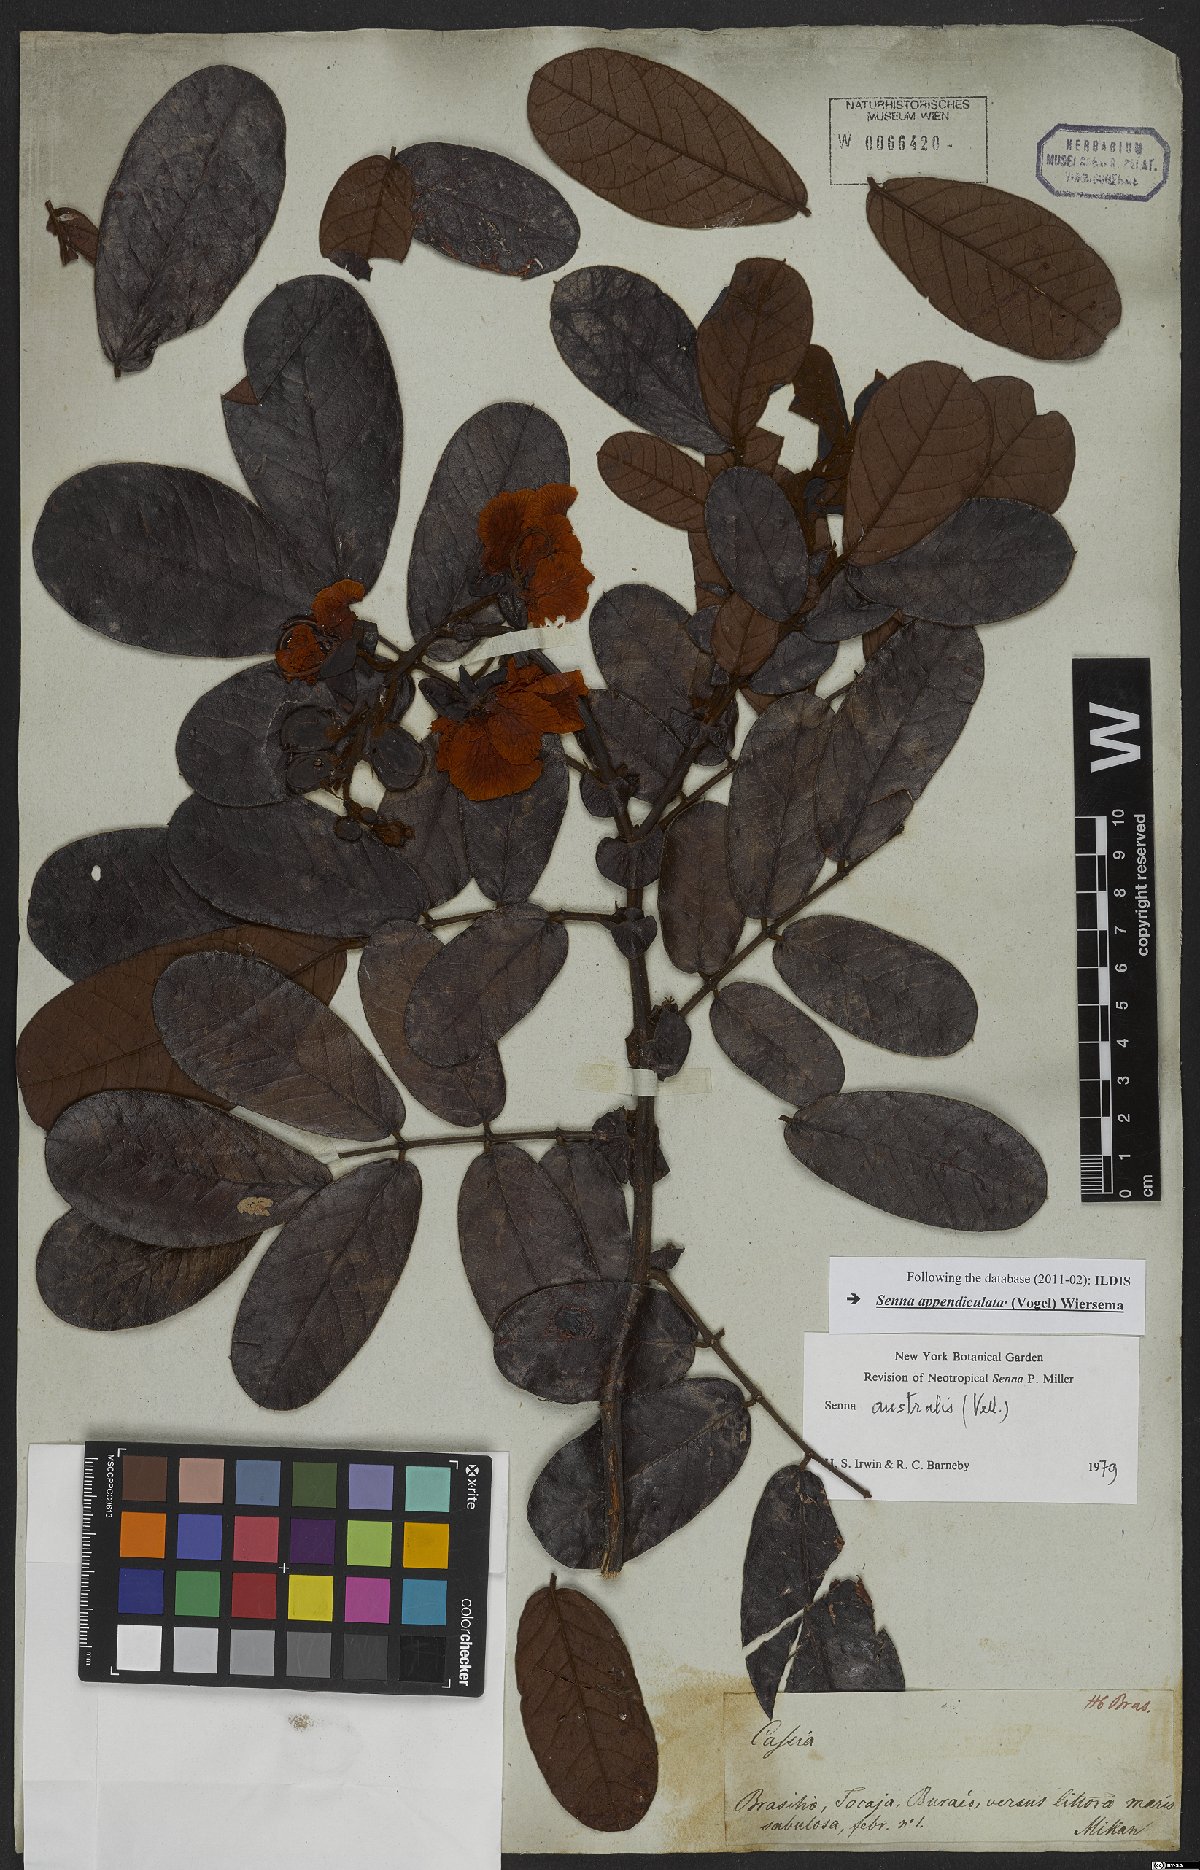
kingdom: Plantae
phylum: Tracheophyta
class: Magnoliopsida
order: Fabales
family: Fabaceae
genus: Senna
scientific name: Senna appendiculata
